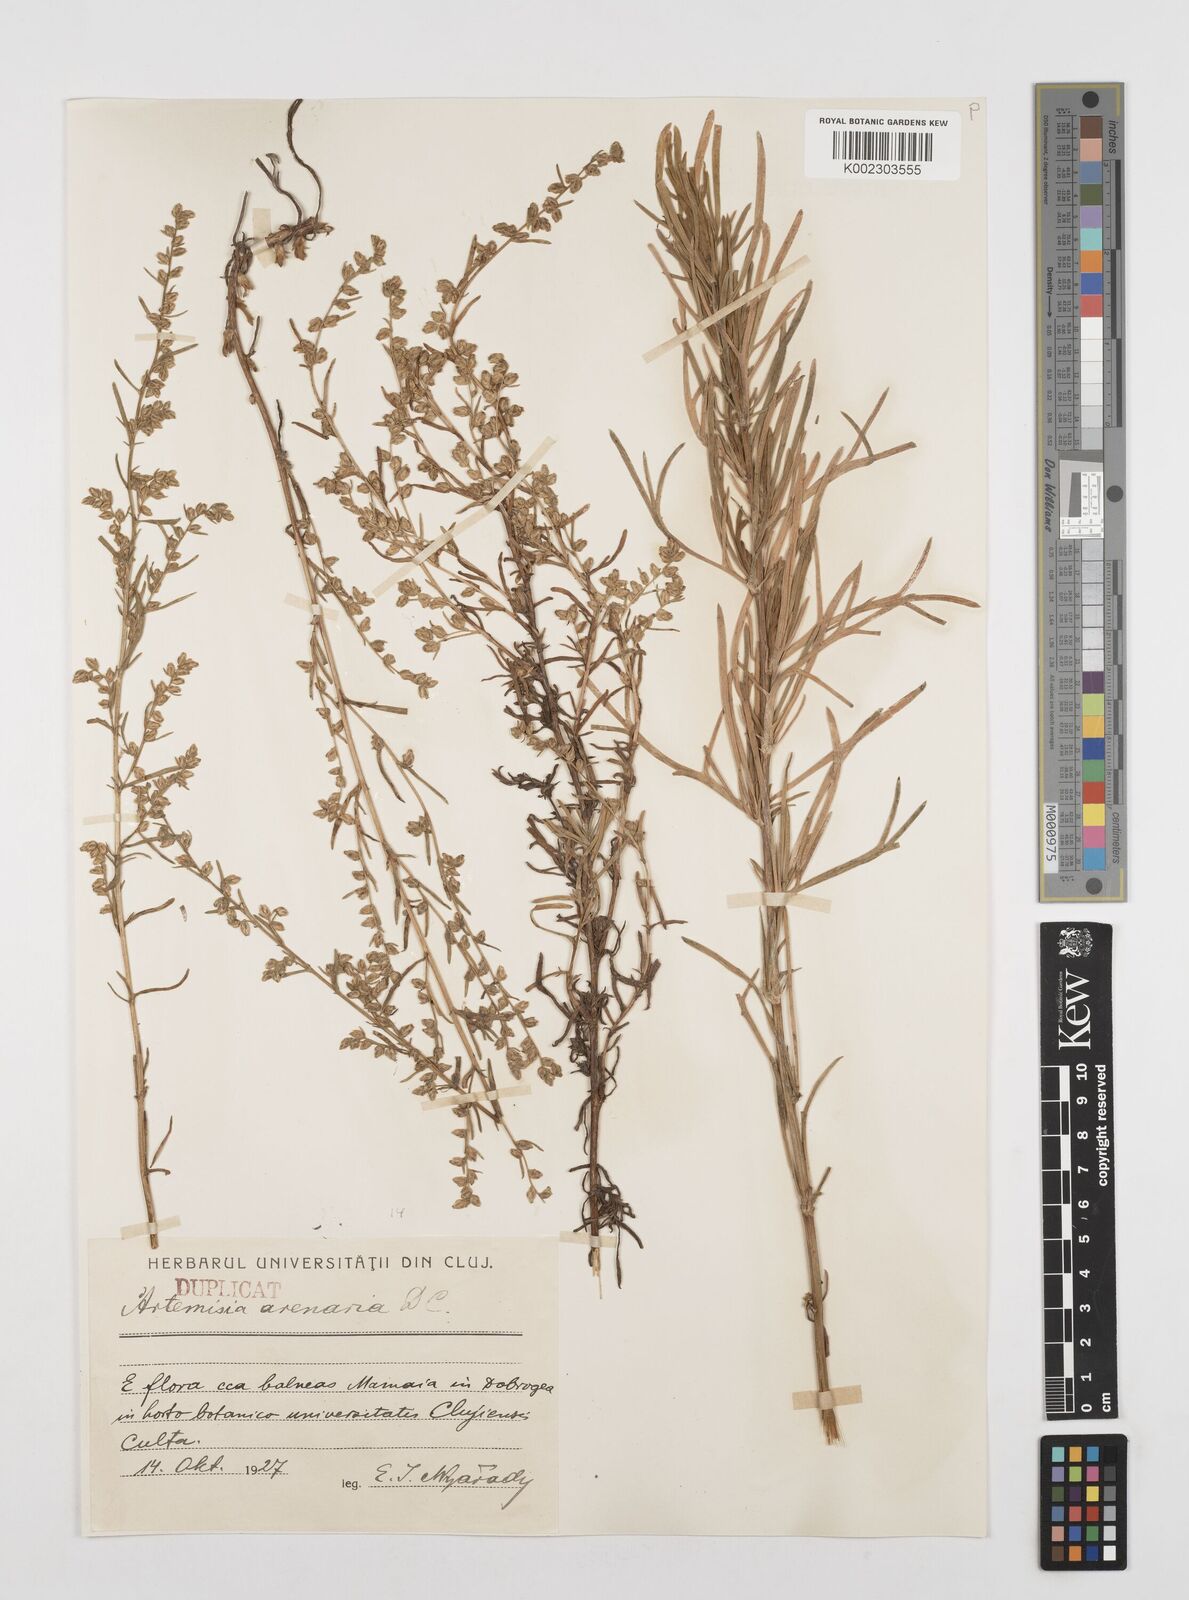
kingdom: Plantae
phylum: Tracheophyta
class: Magnoliopsida
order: Asterales
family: Asteraceae
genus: Artemisia
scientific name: Artemisia arenaria
